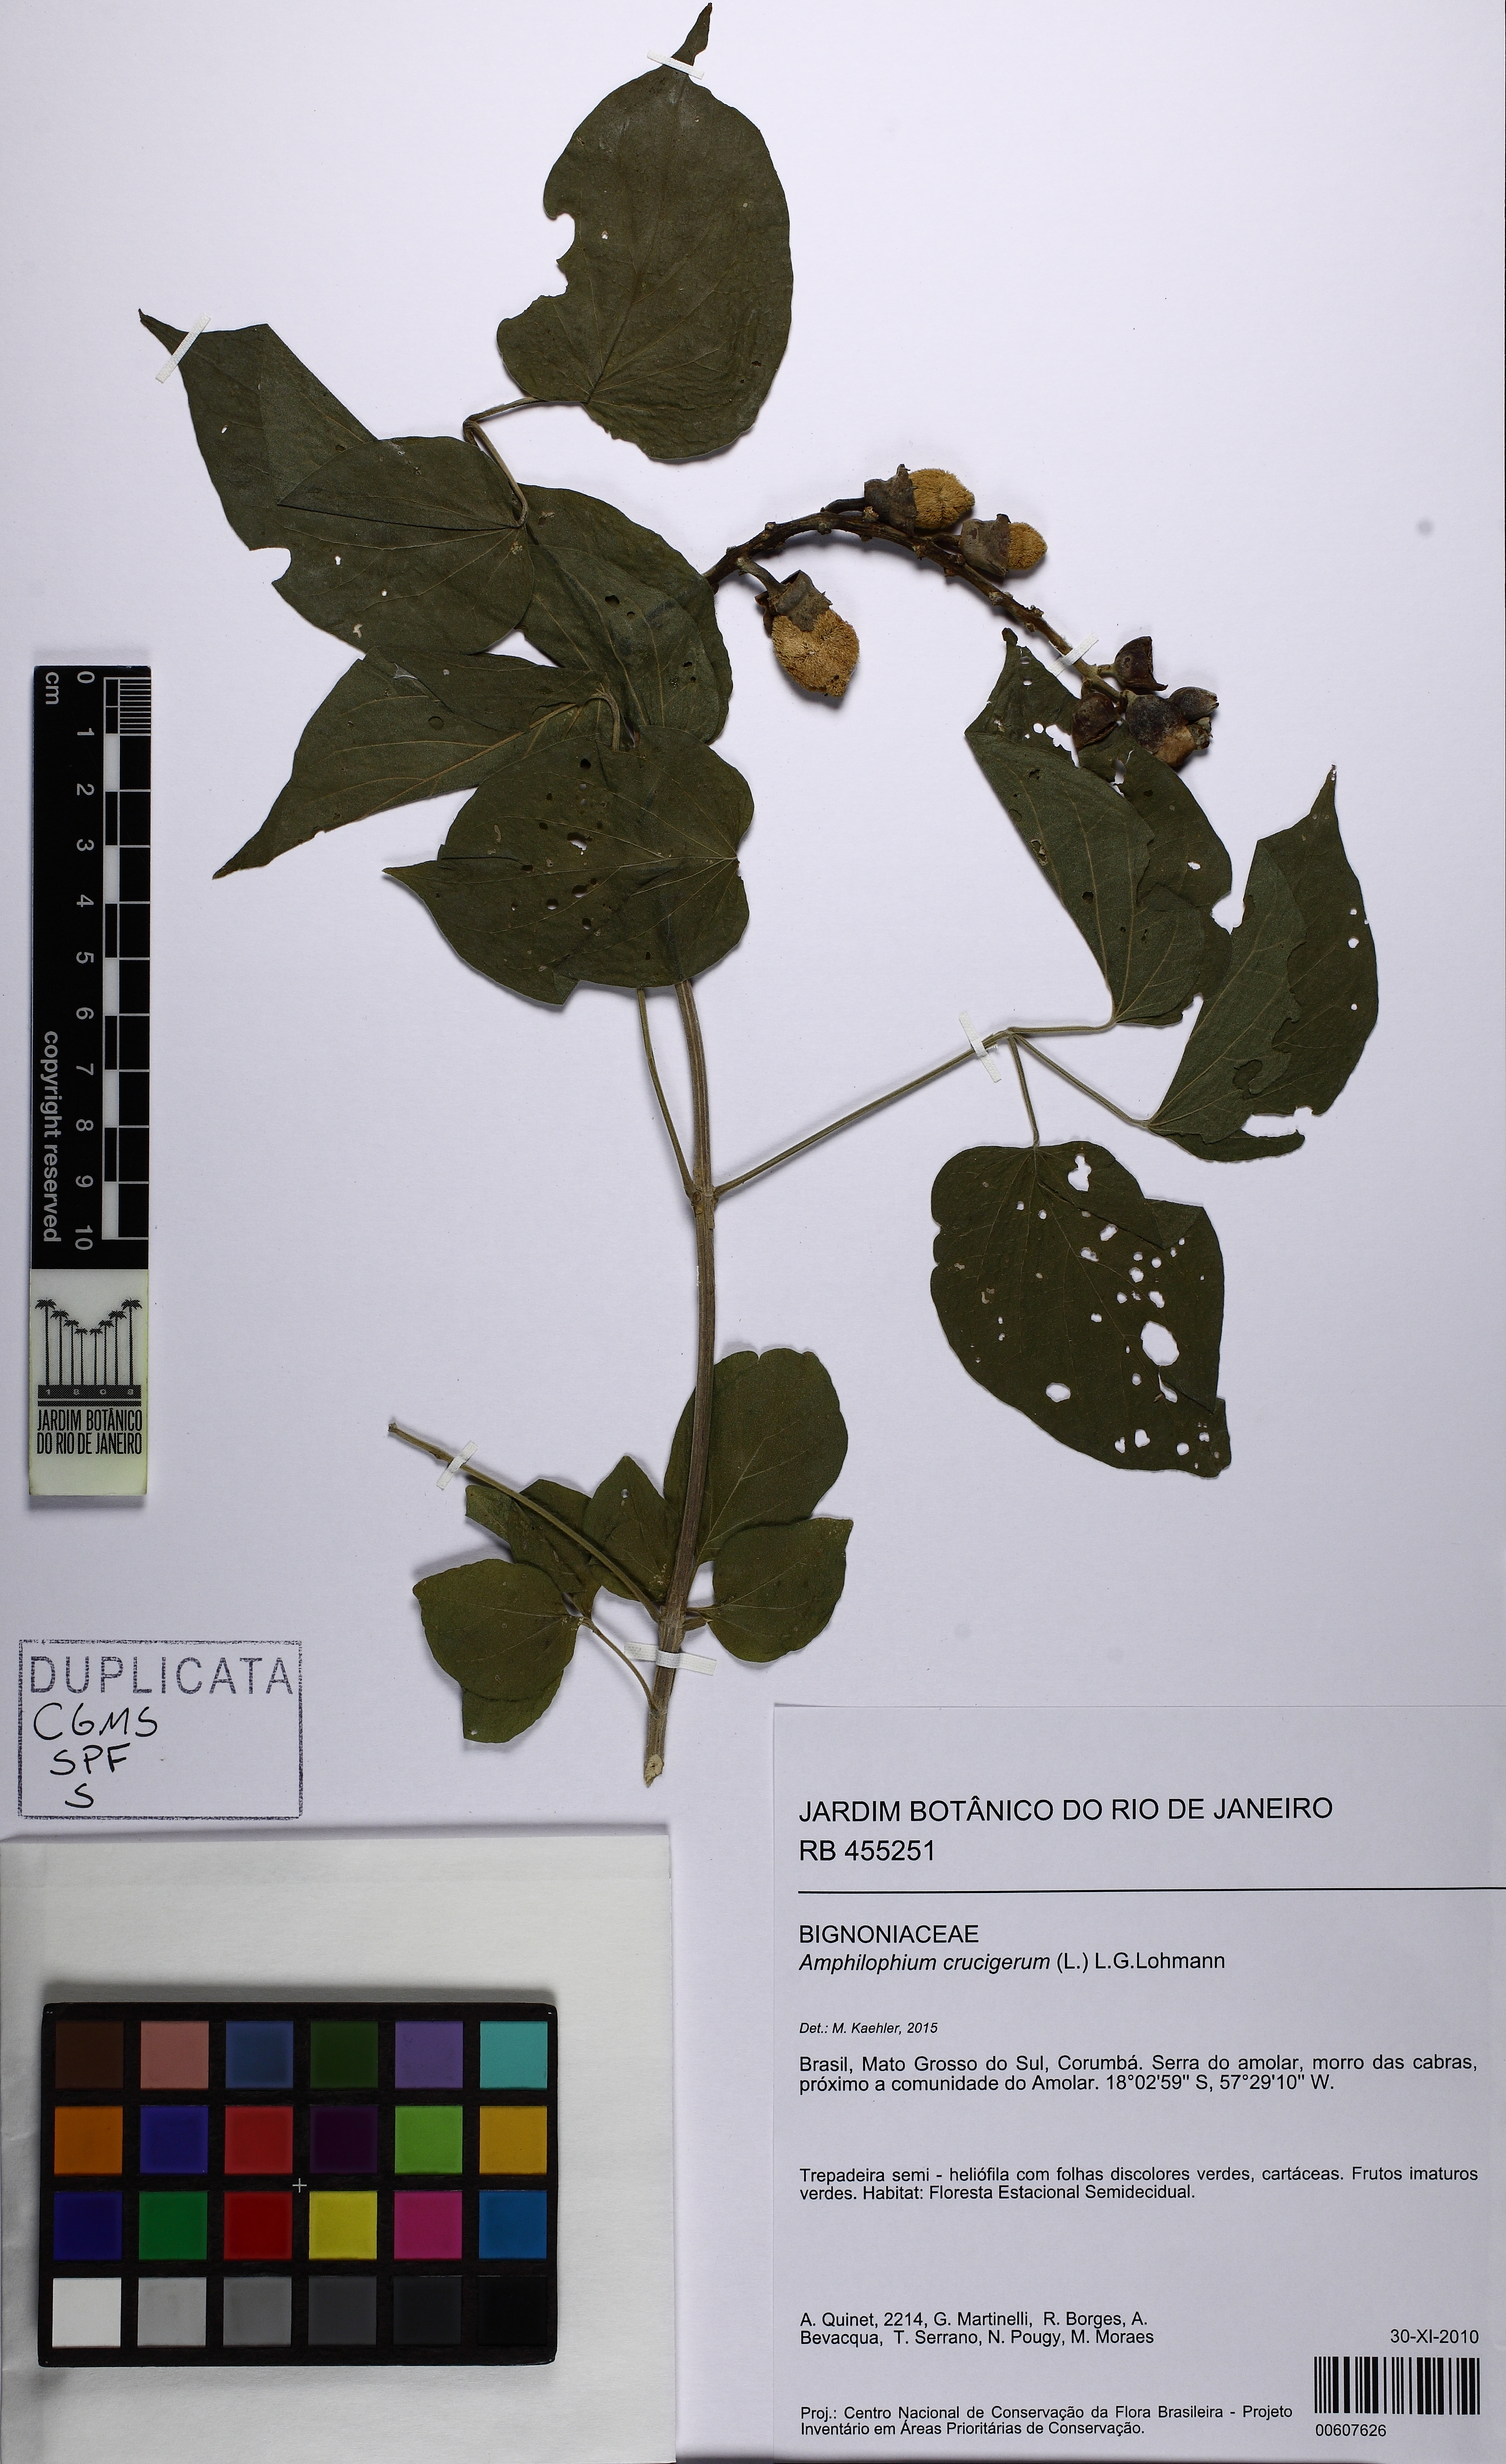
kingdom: Plantae
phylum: Tracheophyta
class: Magnoliopsida
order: Lamiales
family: Bignoniaceae
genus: Amphilophium
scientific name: Amphilophium crucigerum
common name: Monkey comb
